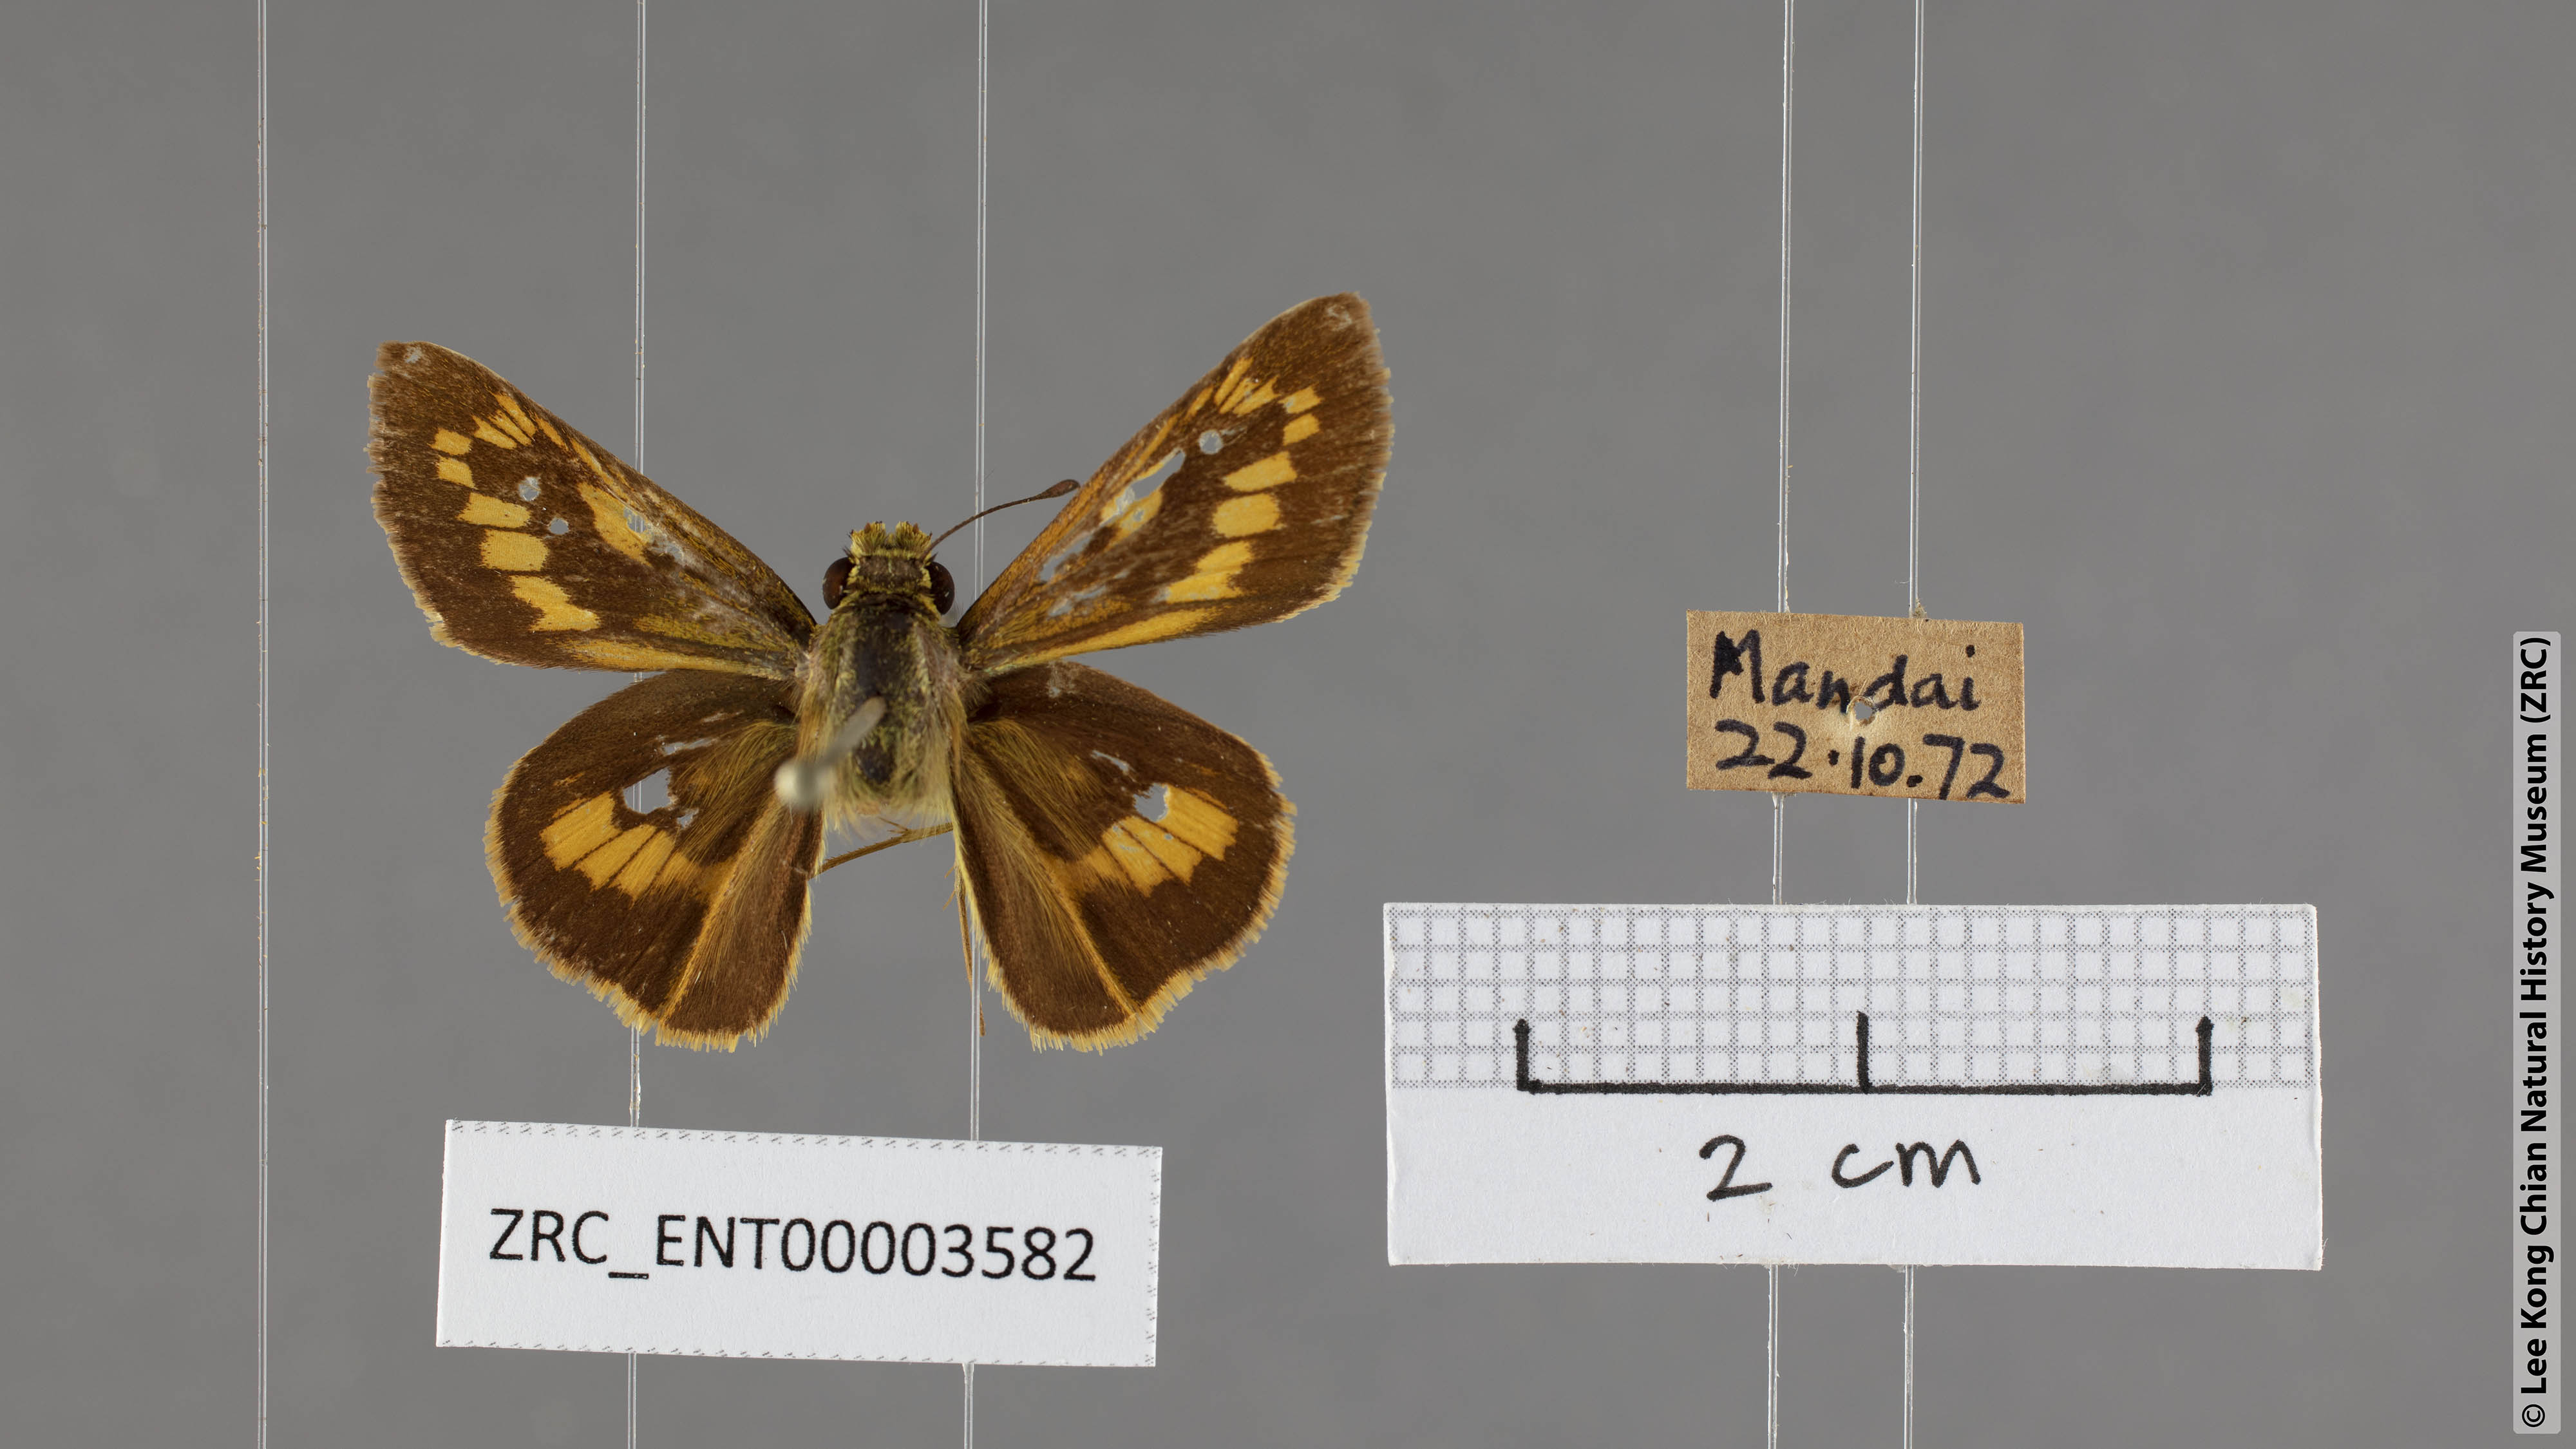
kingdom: Animalia
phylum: Arthropoda
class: Insecta
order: Lepidoptera
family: Hesperiidae
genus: Telicota
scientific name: Telicota besta
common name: Hainan palm dart
